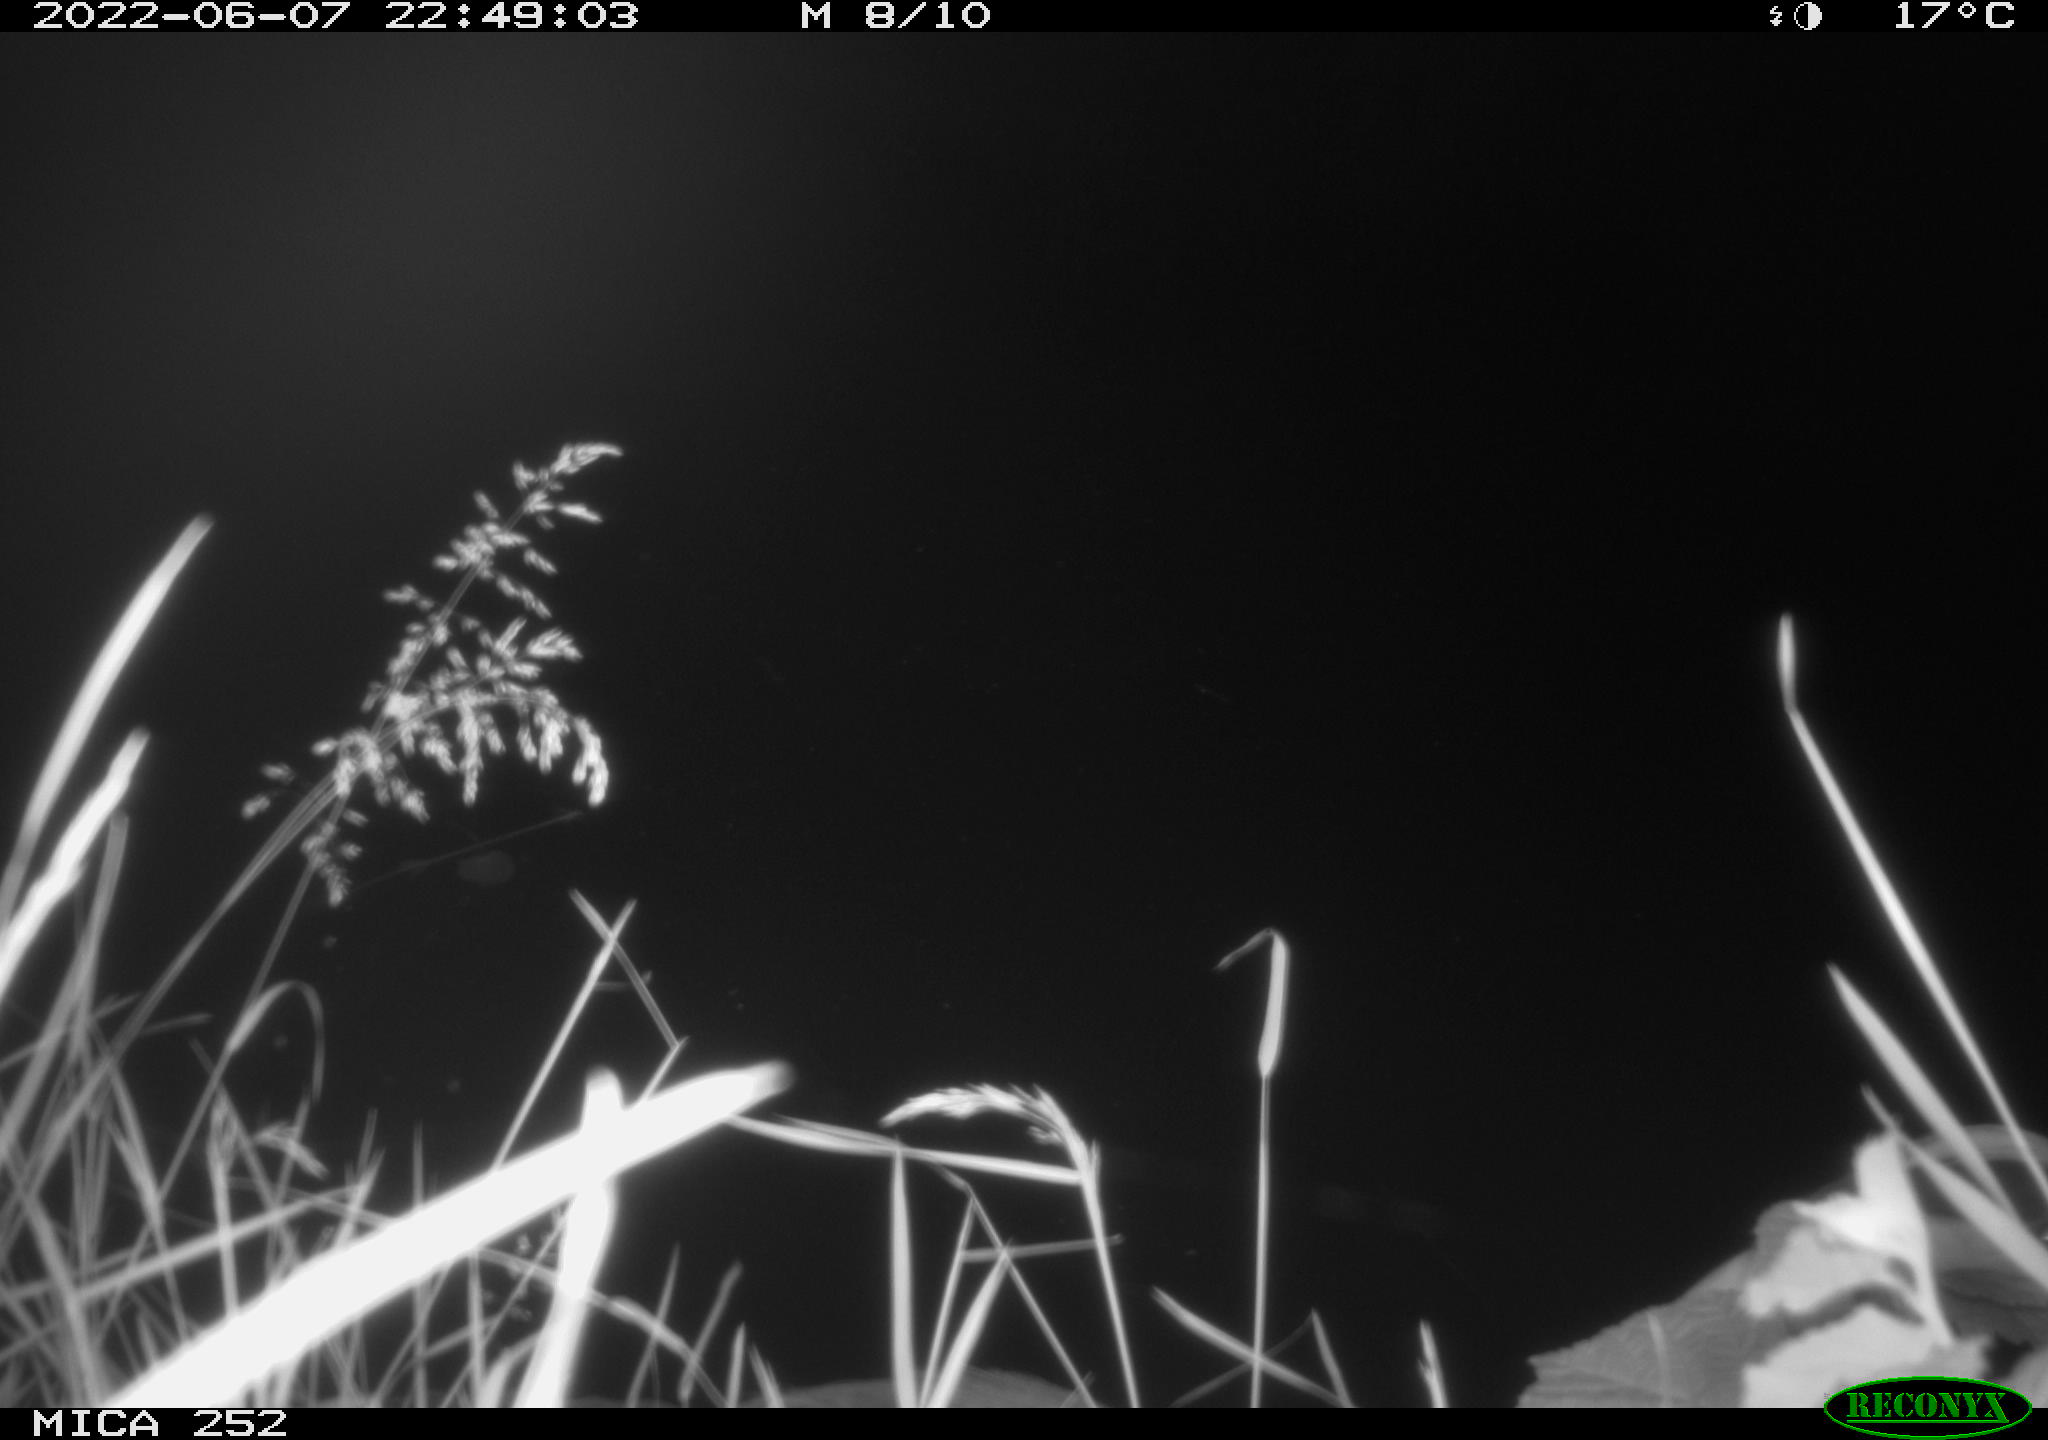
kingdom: Animalia
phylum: Chordata
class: Aves
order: Pelecaniformes
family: Ardeidae
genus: Ardea
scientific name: Ardea cinerea
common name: Grey heron
